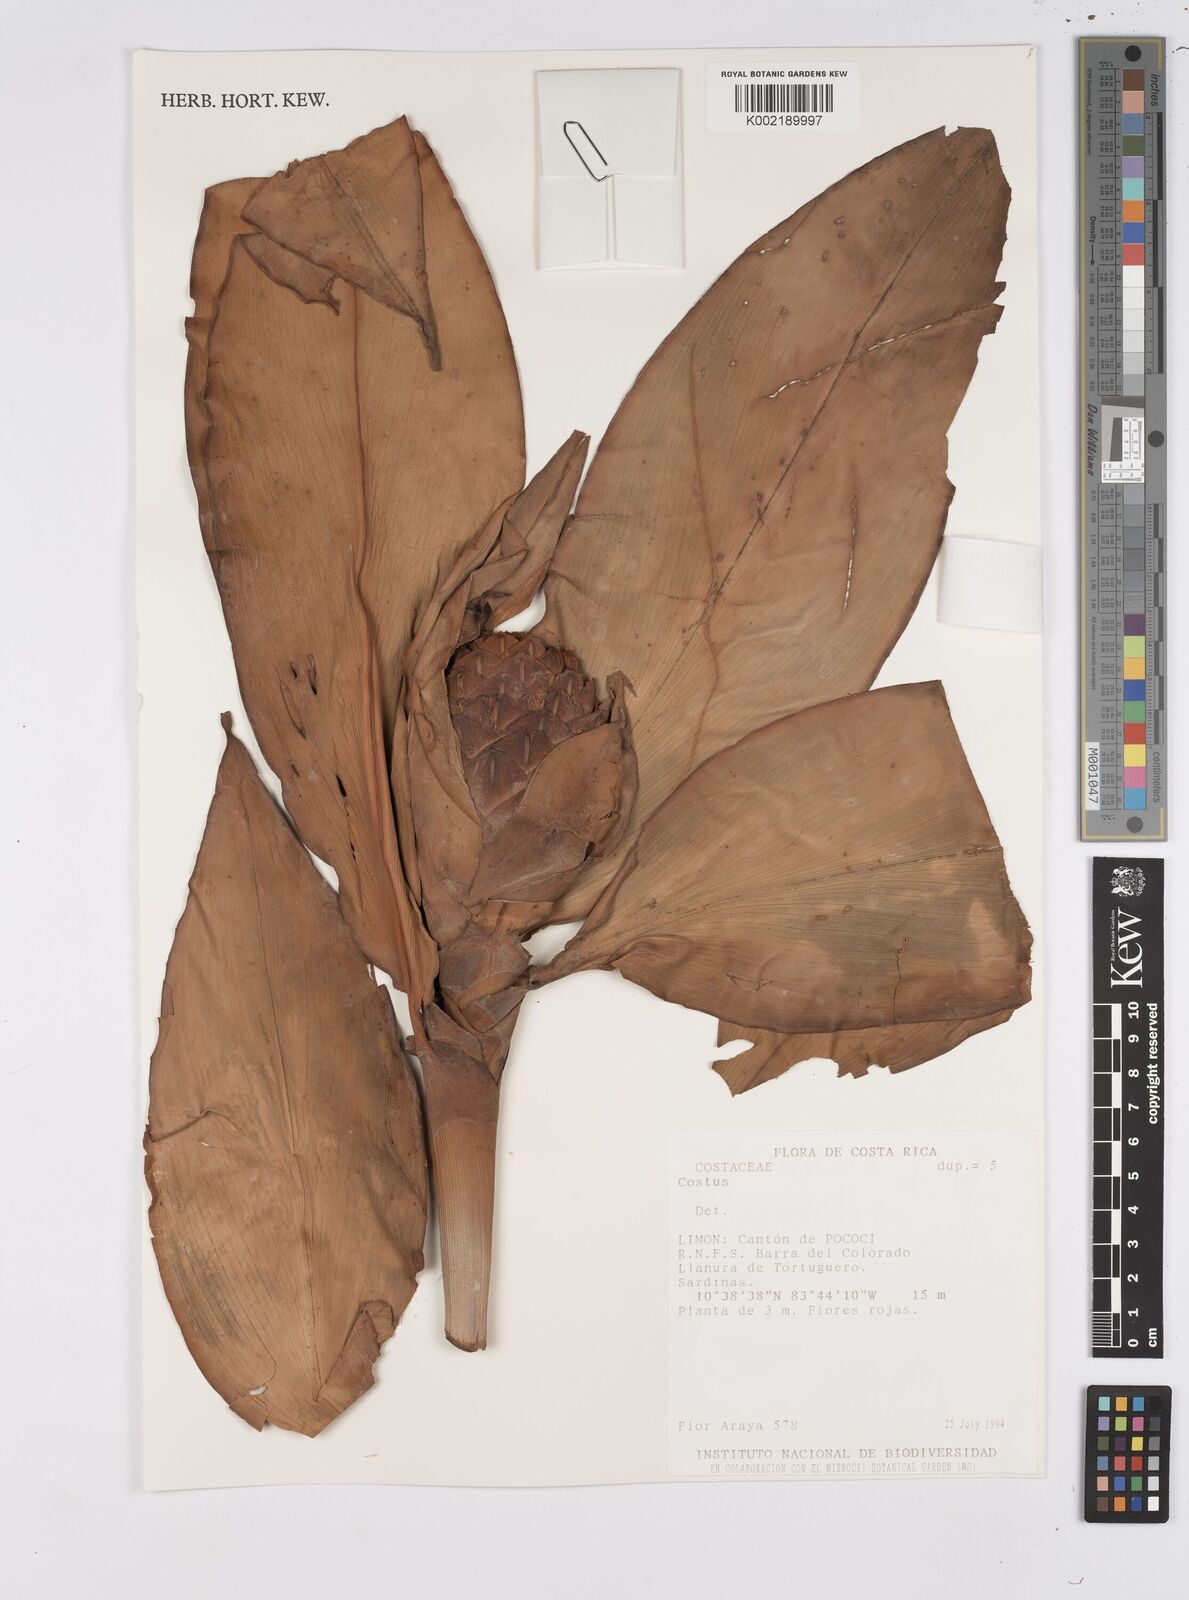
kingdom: Plantae
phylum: Tracheophyta
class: Liliopsida
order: Zingiberales
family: Costaceae
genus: Costus
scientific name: Costus glaucus
